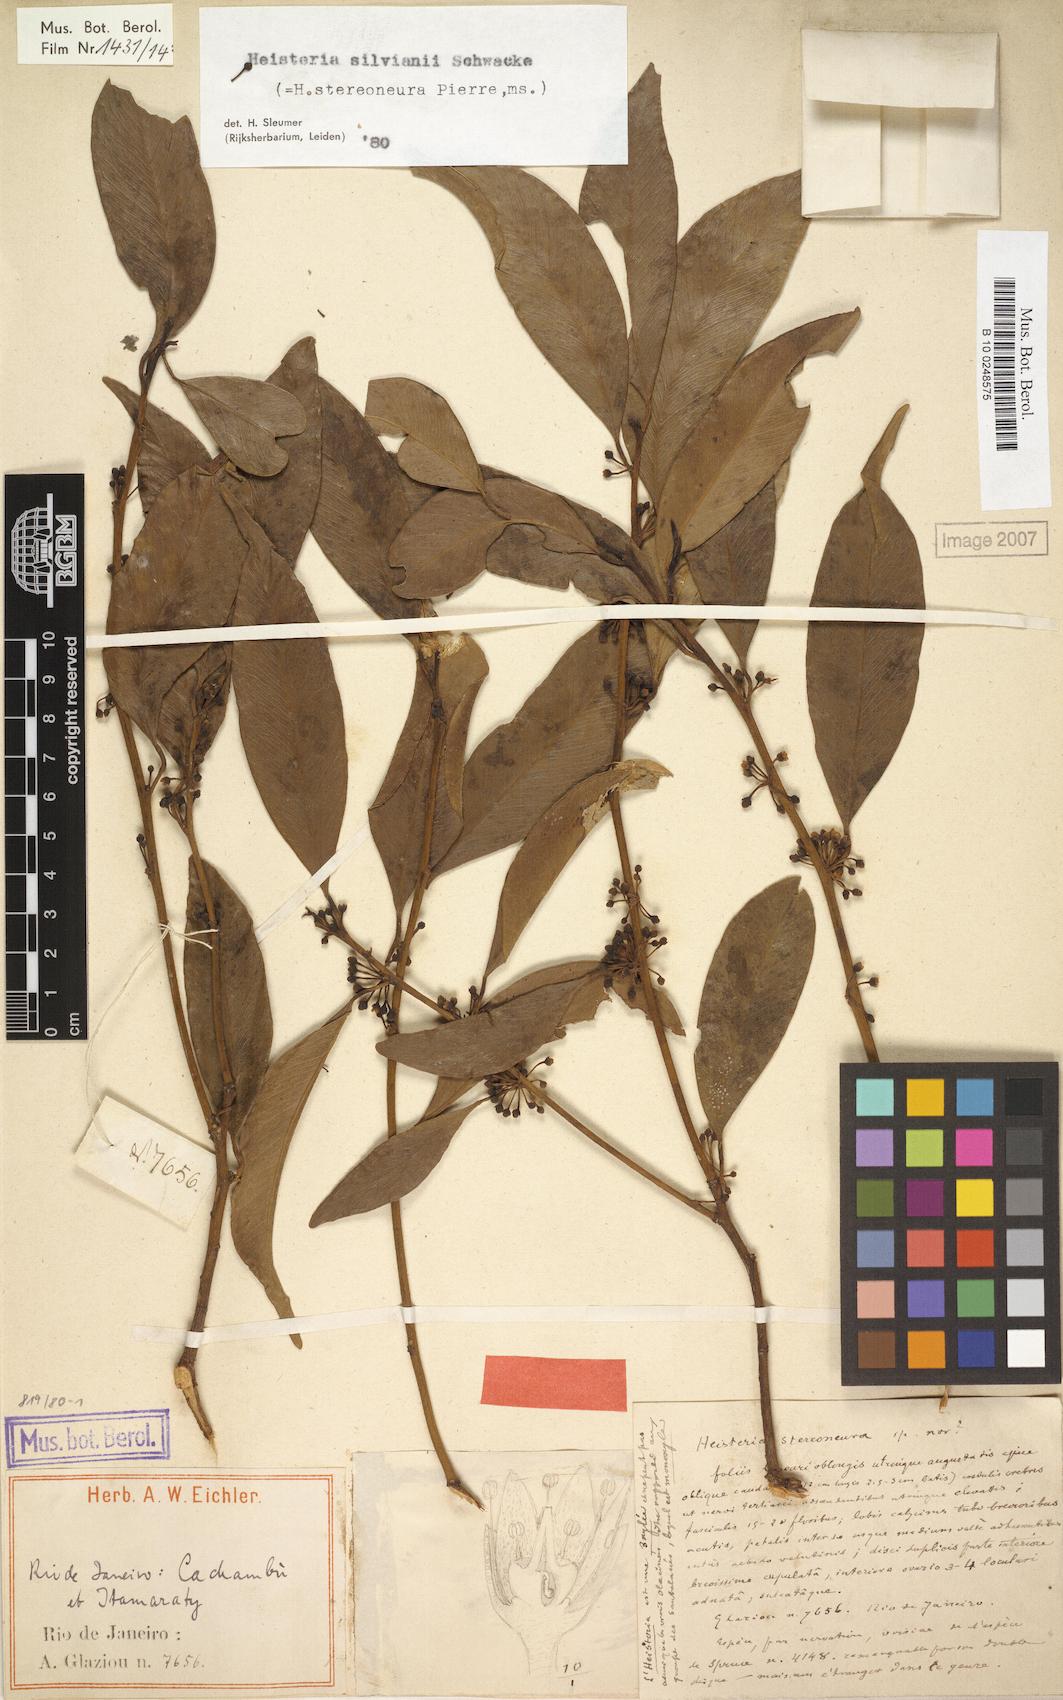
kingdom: Plantae
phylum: Tracheophyta
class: Magnoliopsida
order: Santalales
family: Erythropalaceae
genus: Heisteria
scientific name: Heisteria silvianii
